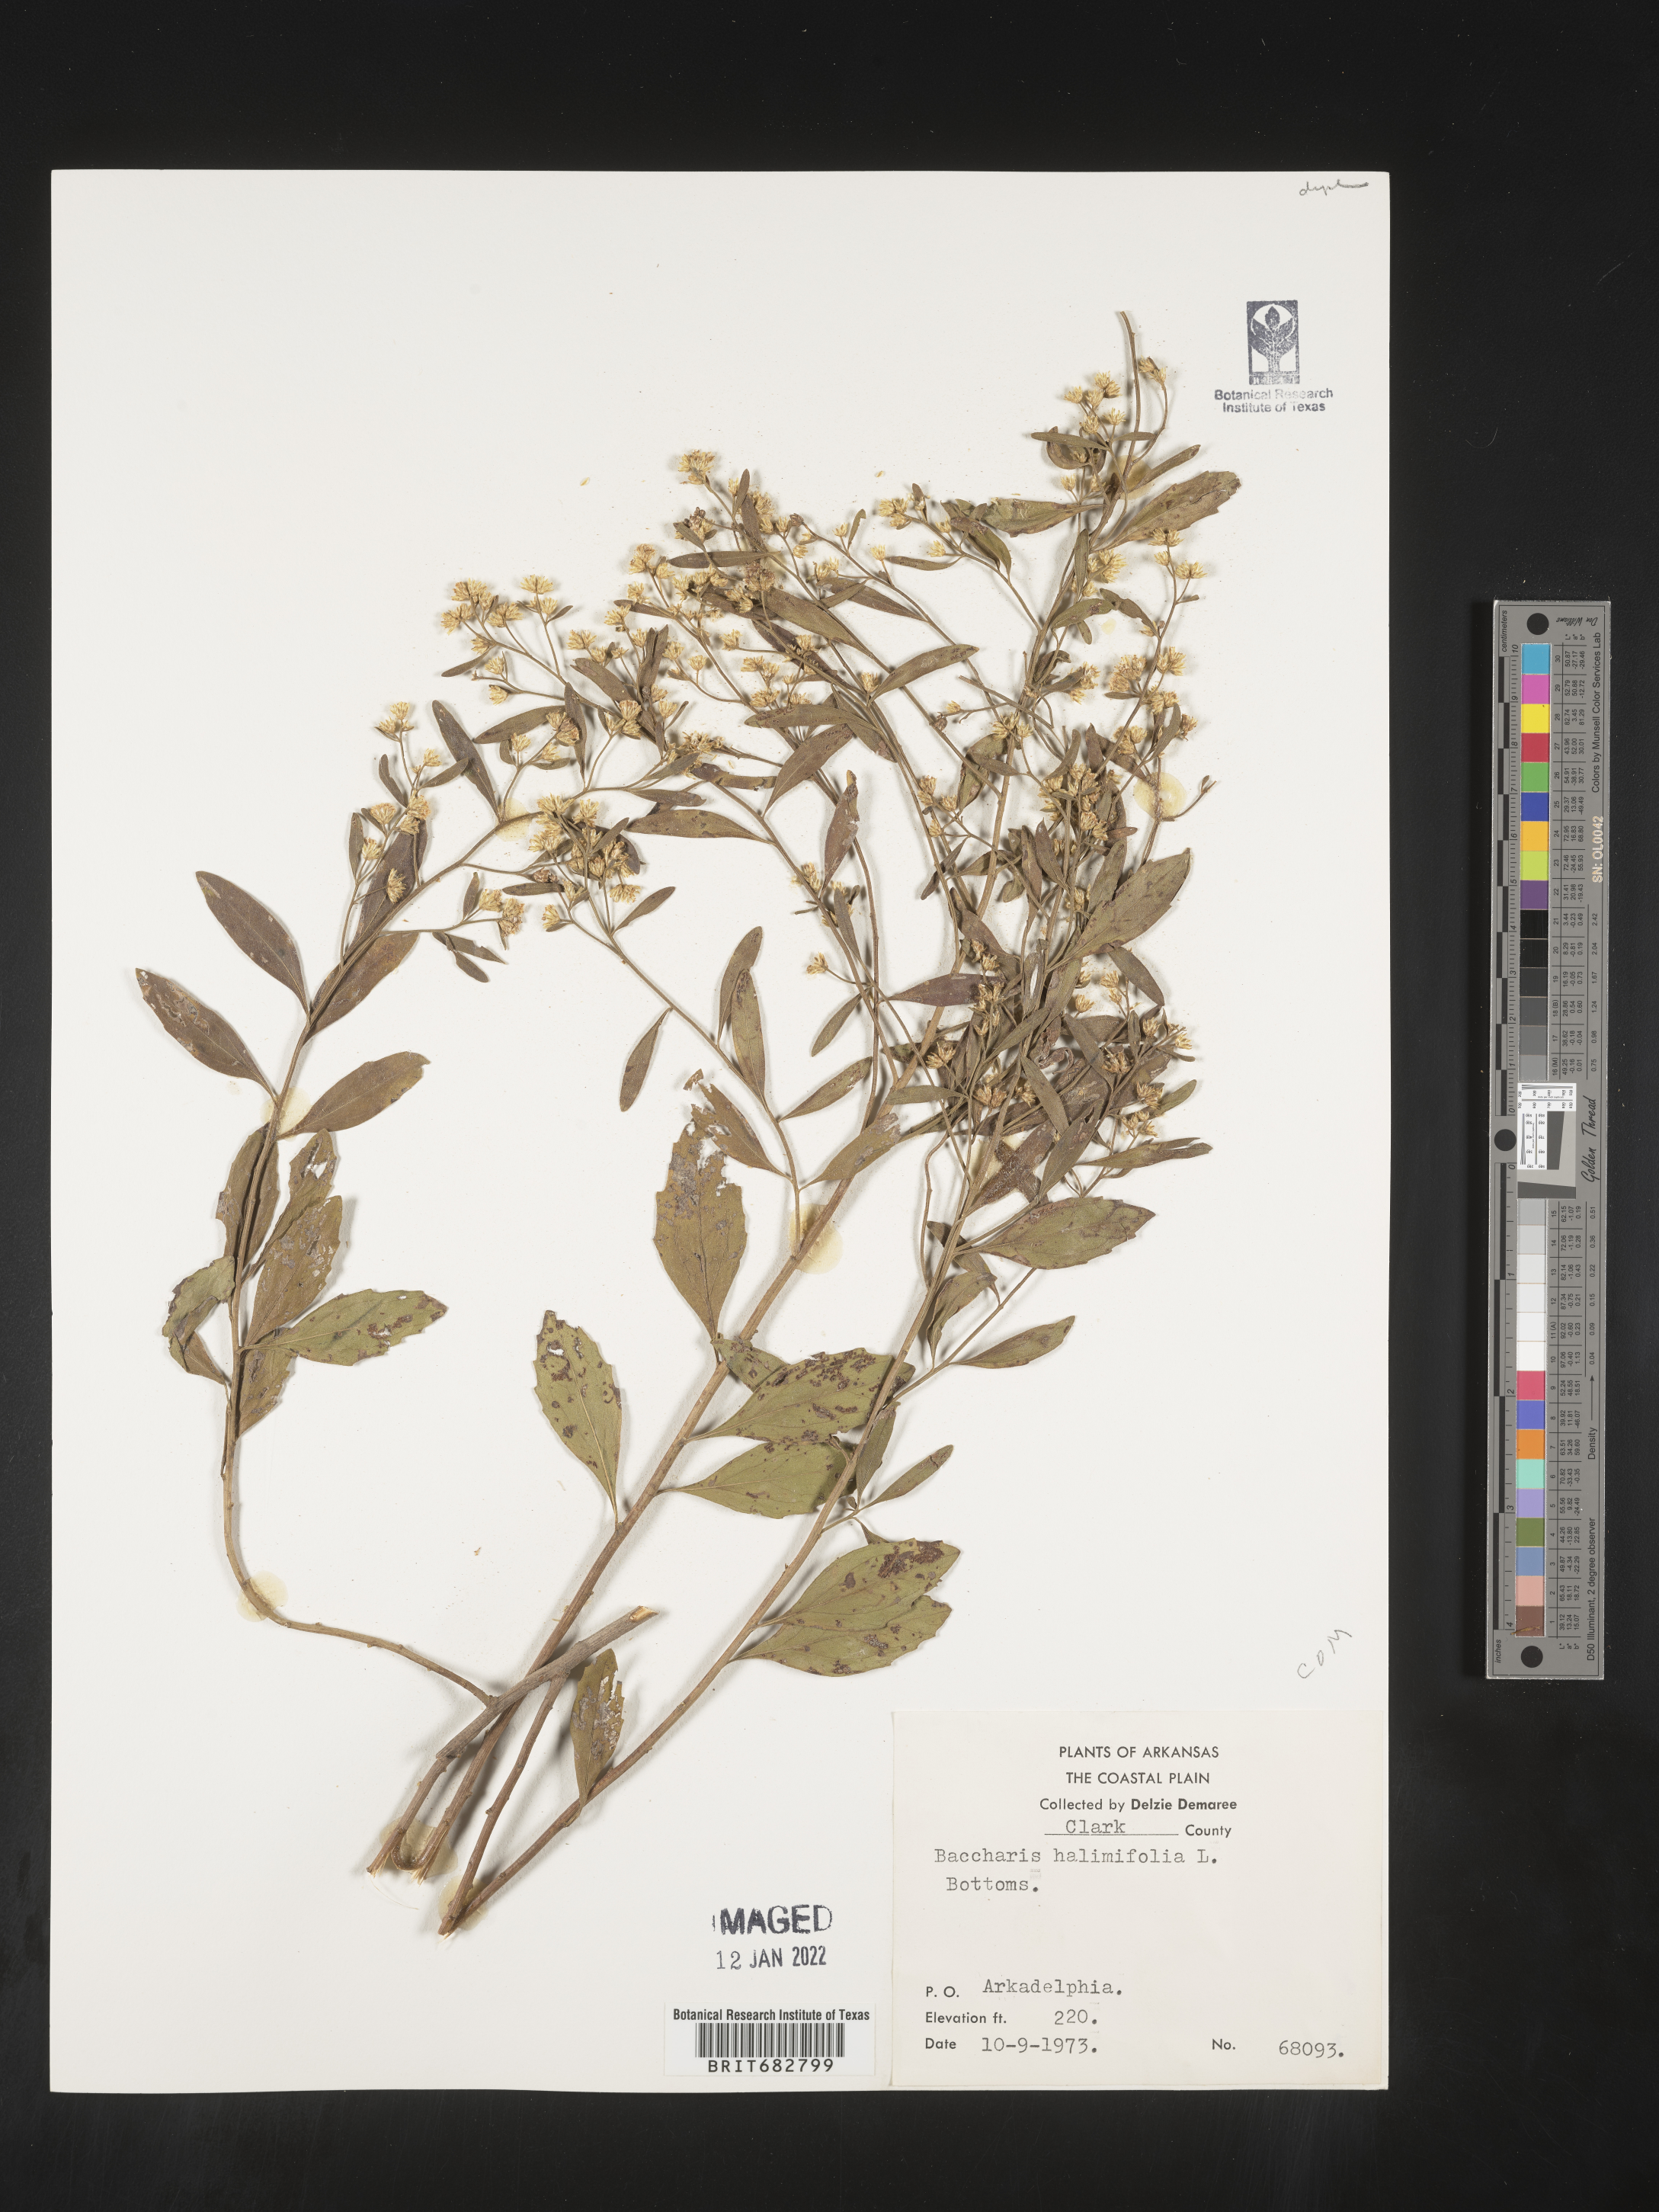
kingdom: Plantae
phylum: Tracheophyta
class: Magnoliopsida
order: Asterales
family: Asteraceae
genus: Nidorella
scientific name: Nidorella ivifolia
